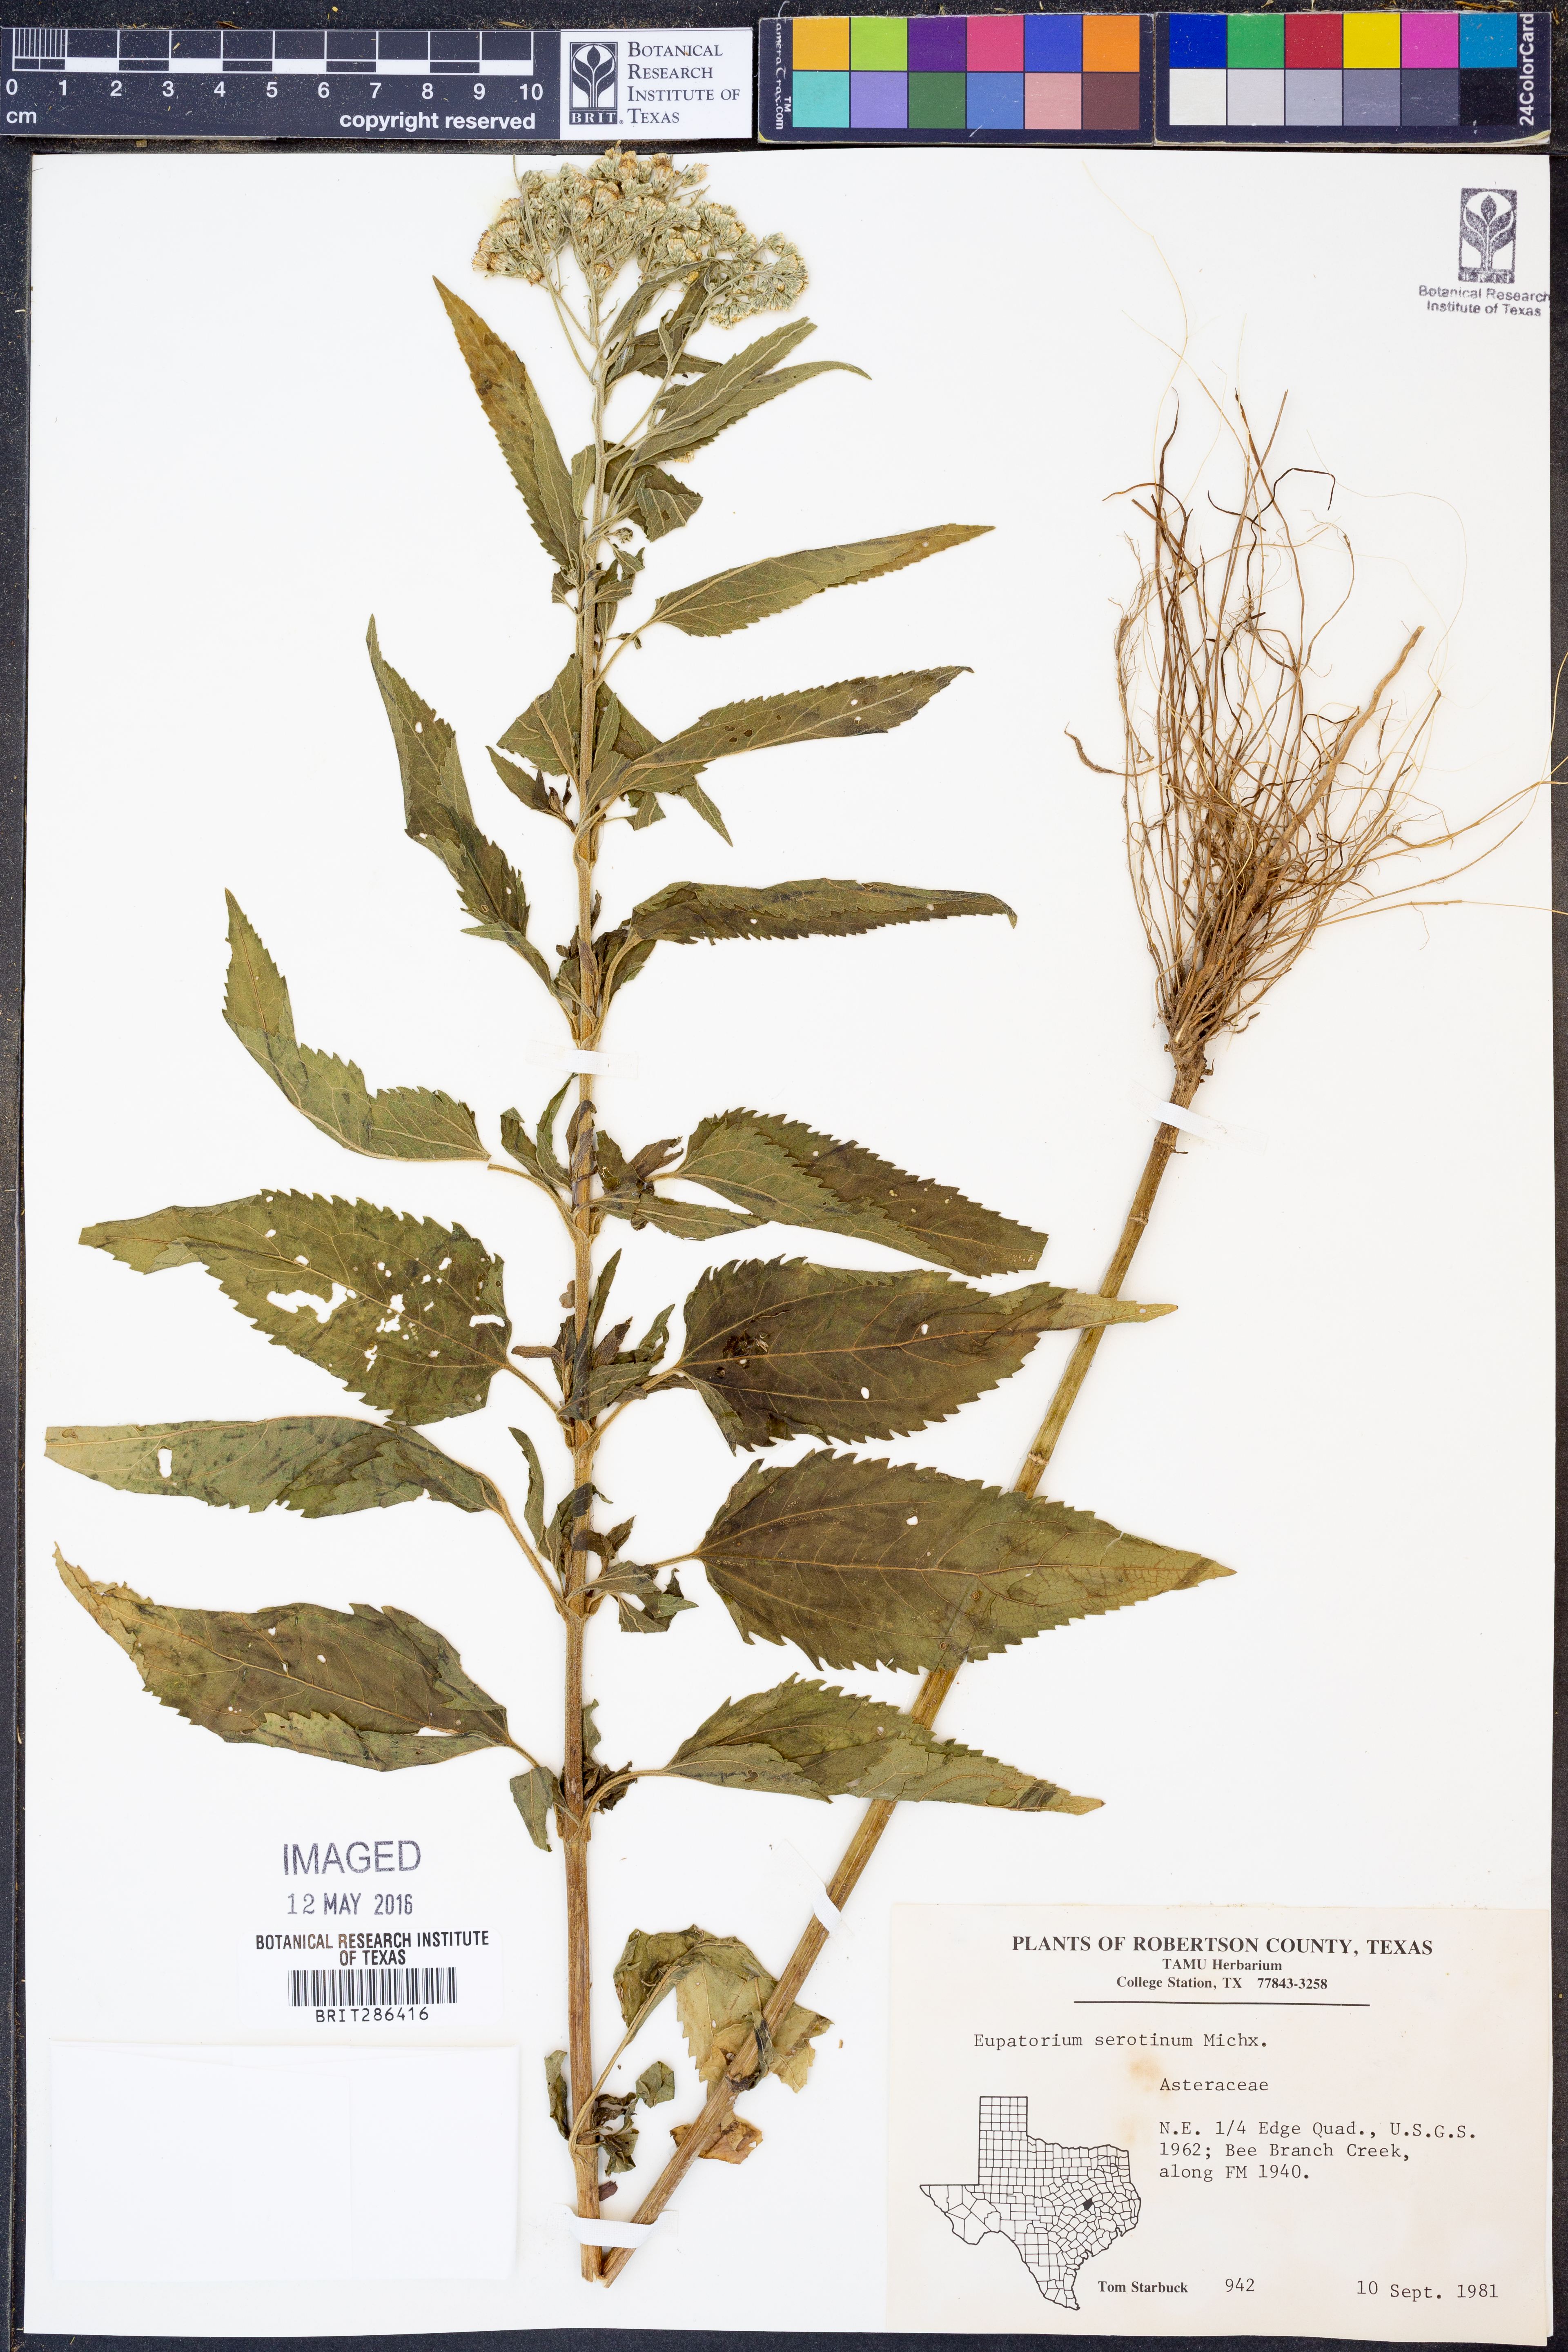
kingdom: Plantae
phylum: Tracheophyta
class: Magnoliopsida
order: Asterales
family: Asteraceae
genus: Eupatorium
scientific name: Eupatorium serotinum
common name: Late boneset
